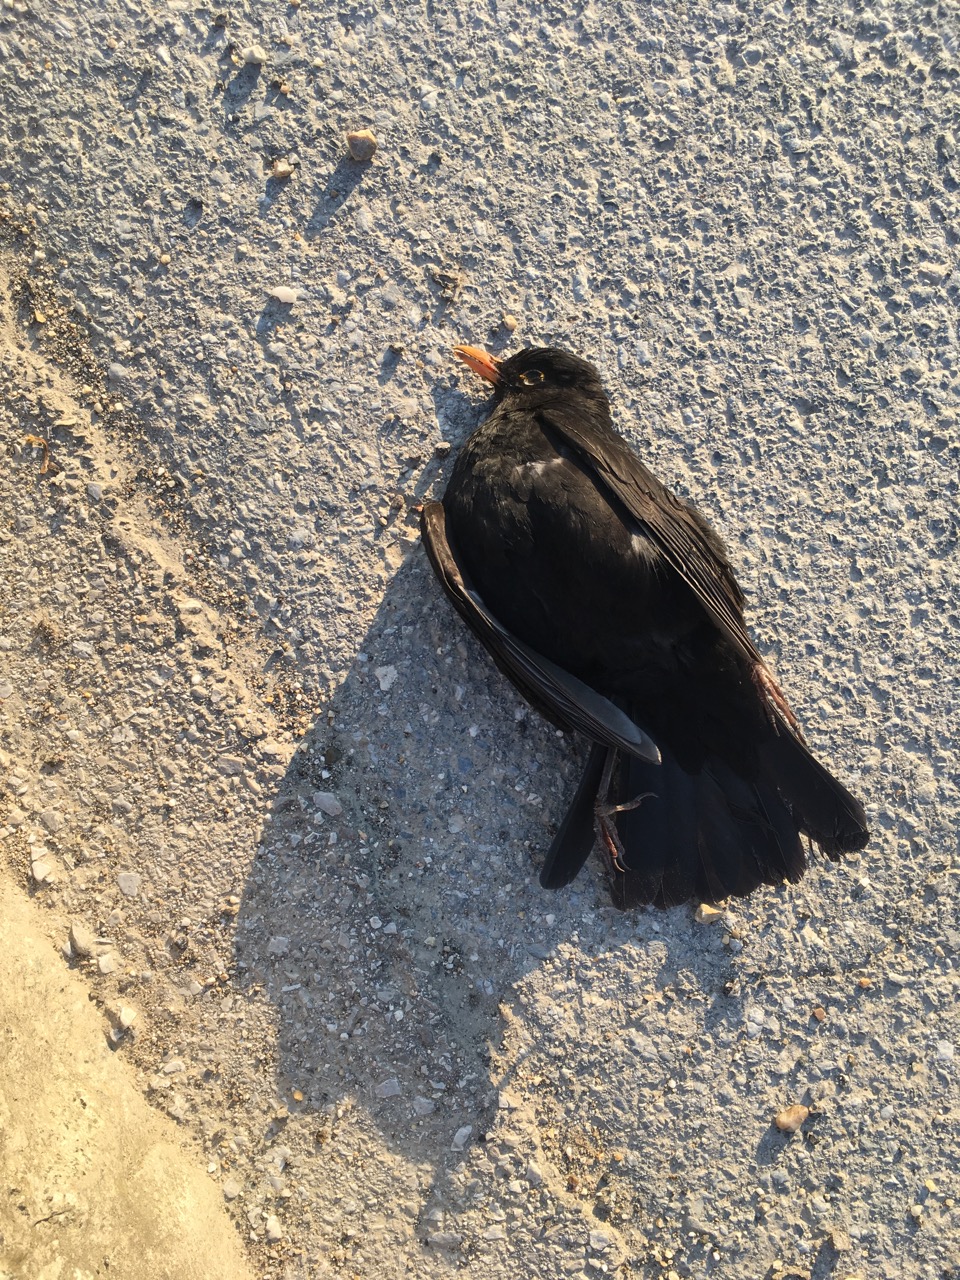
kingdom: Animalia
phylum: Chordata
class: Aves
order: Passeriformes
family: Turdidae
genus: Turdus
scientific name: Turdus merula
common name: Common blackbird
